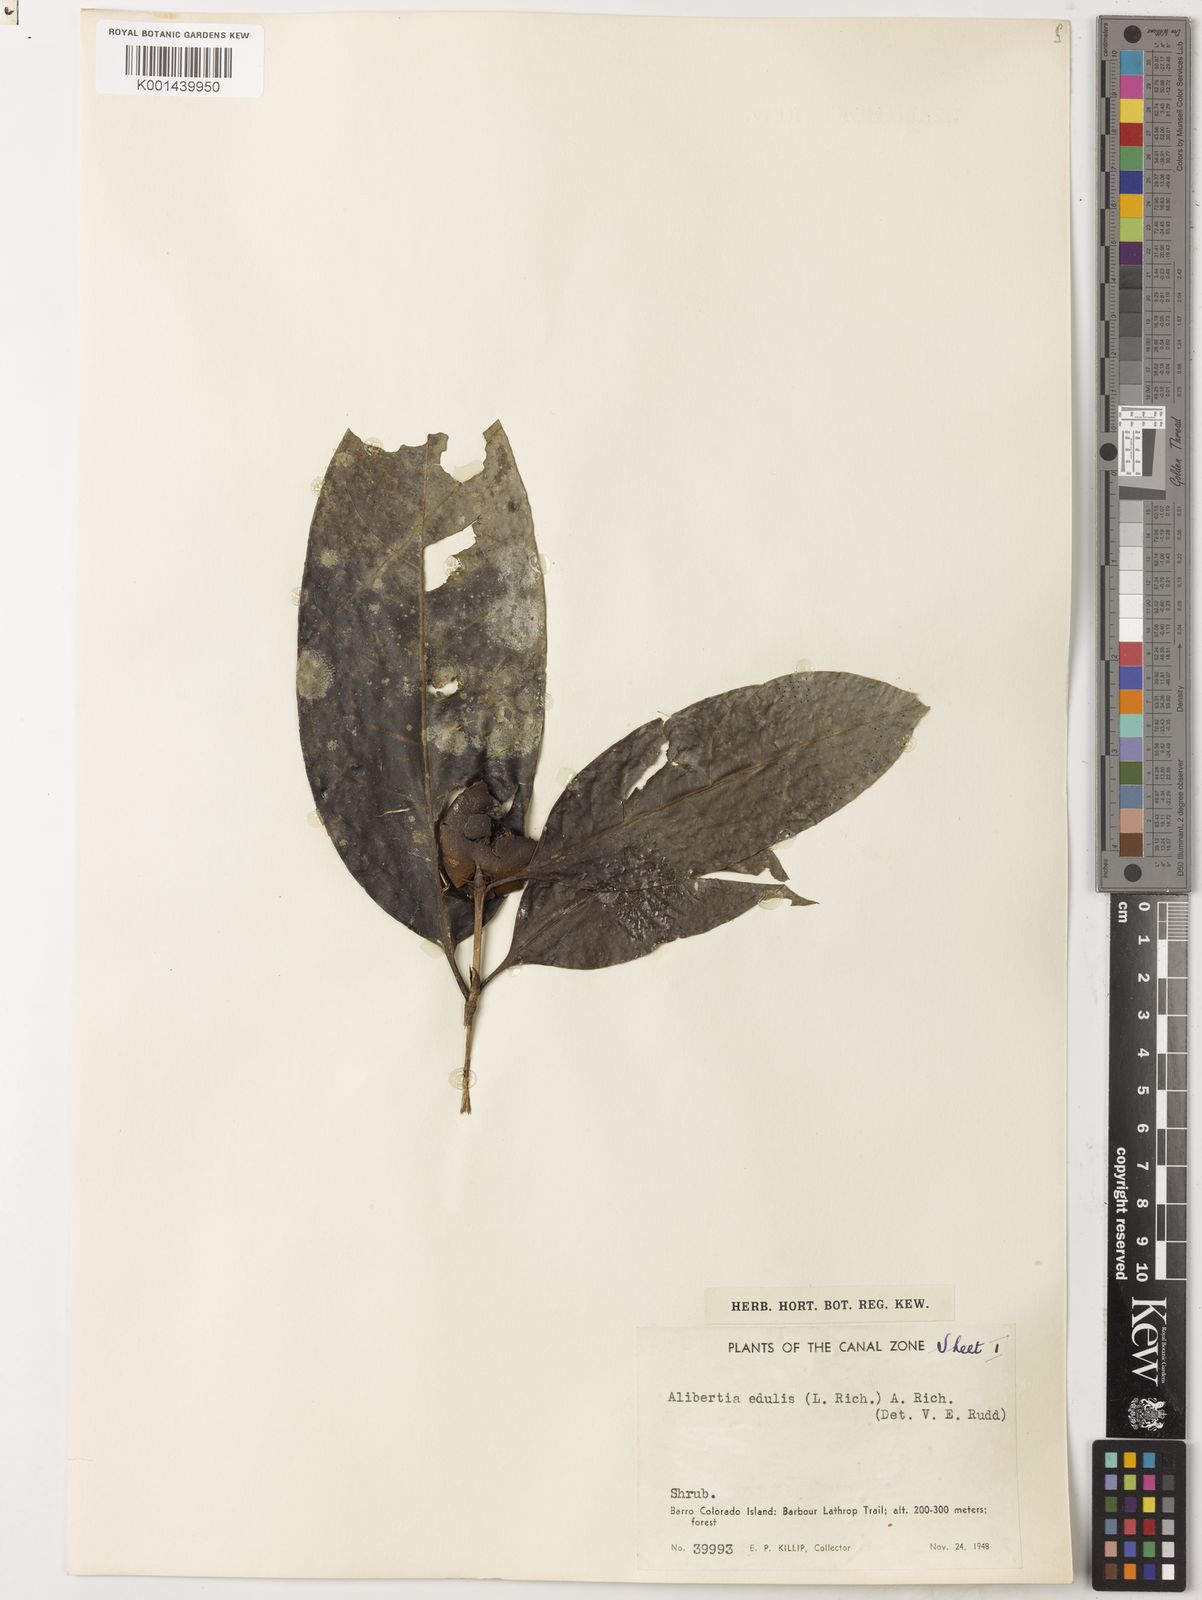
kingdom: Plantae
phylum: Tracheophyta
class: Magnoliopsida
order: Gentianales
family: Rubiaceae
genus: Alibertia
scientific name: Alibertia edulis
